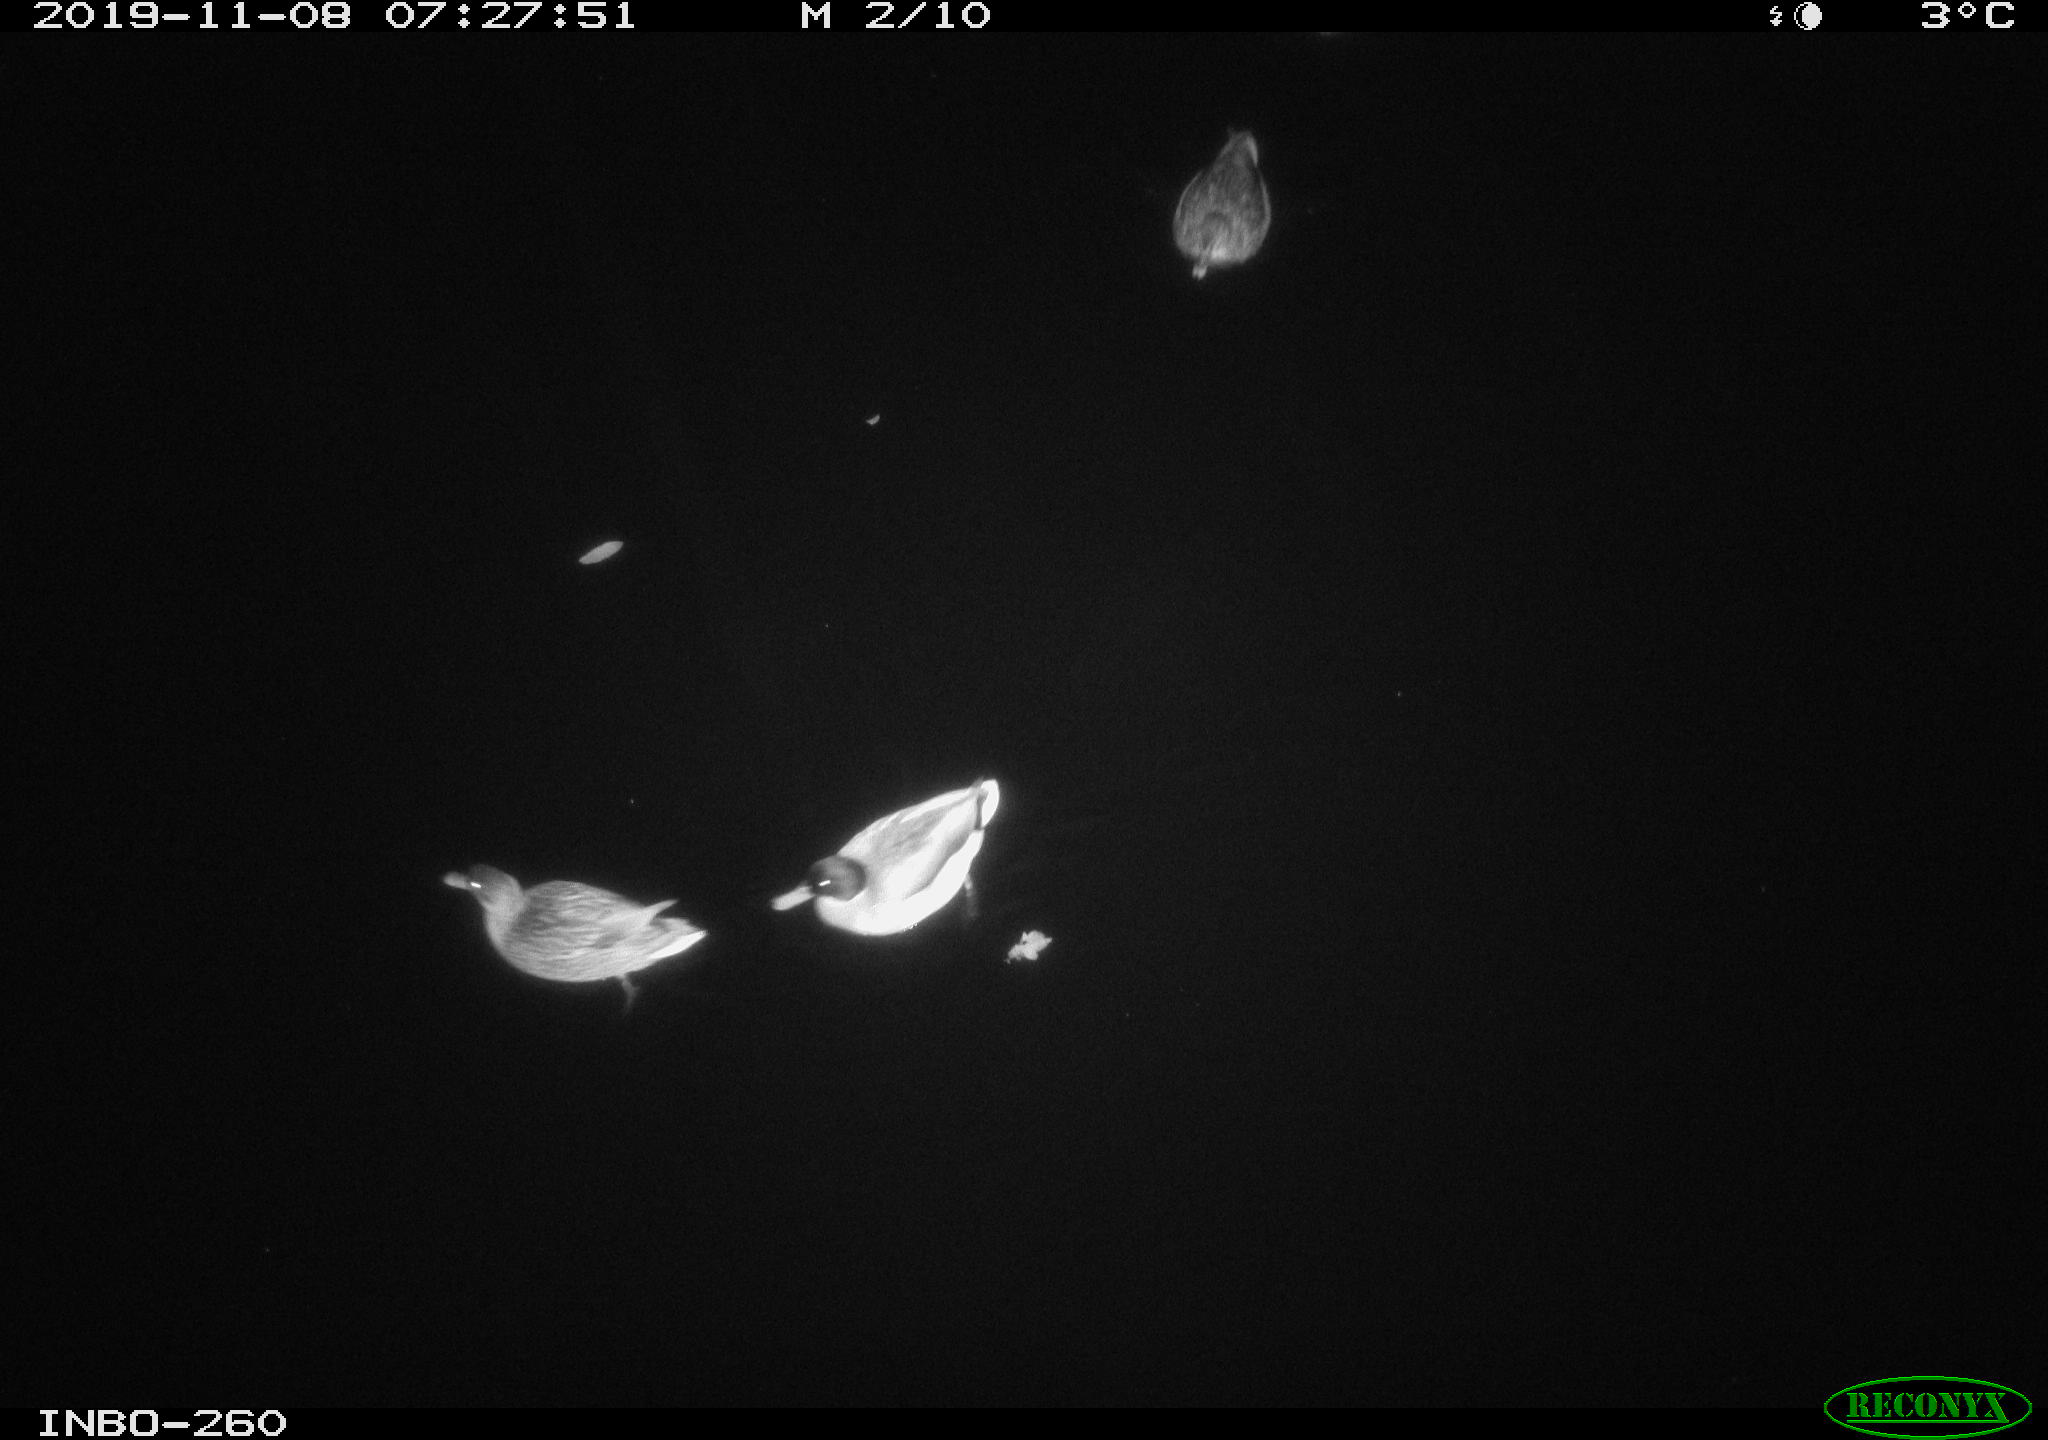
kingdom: Animalia
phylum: Chordata
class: Aves
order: Anseriformes
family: Anatidae
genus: Anas
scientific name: Anas platyrhynchos
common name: Mallard
